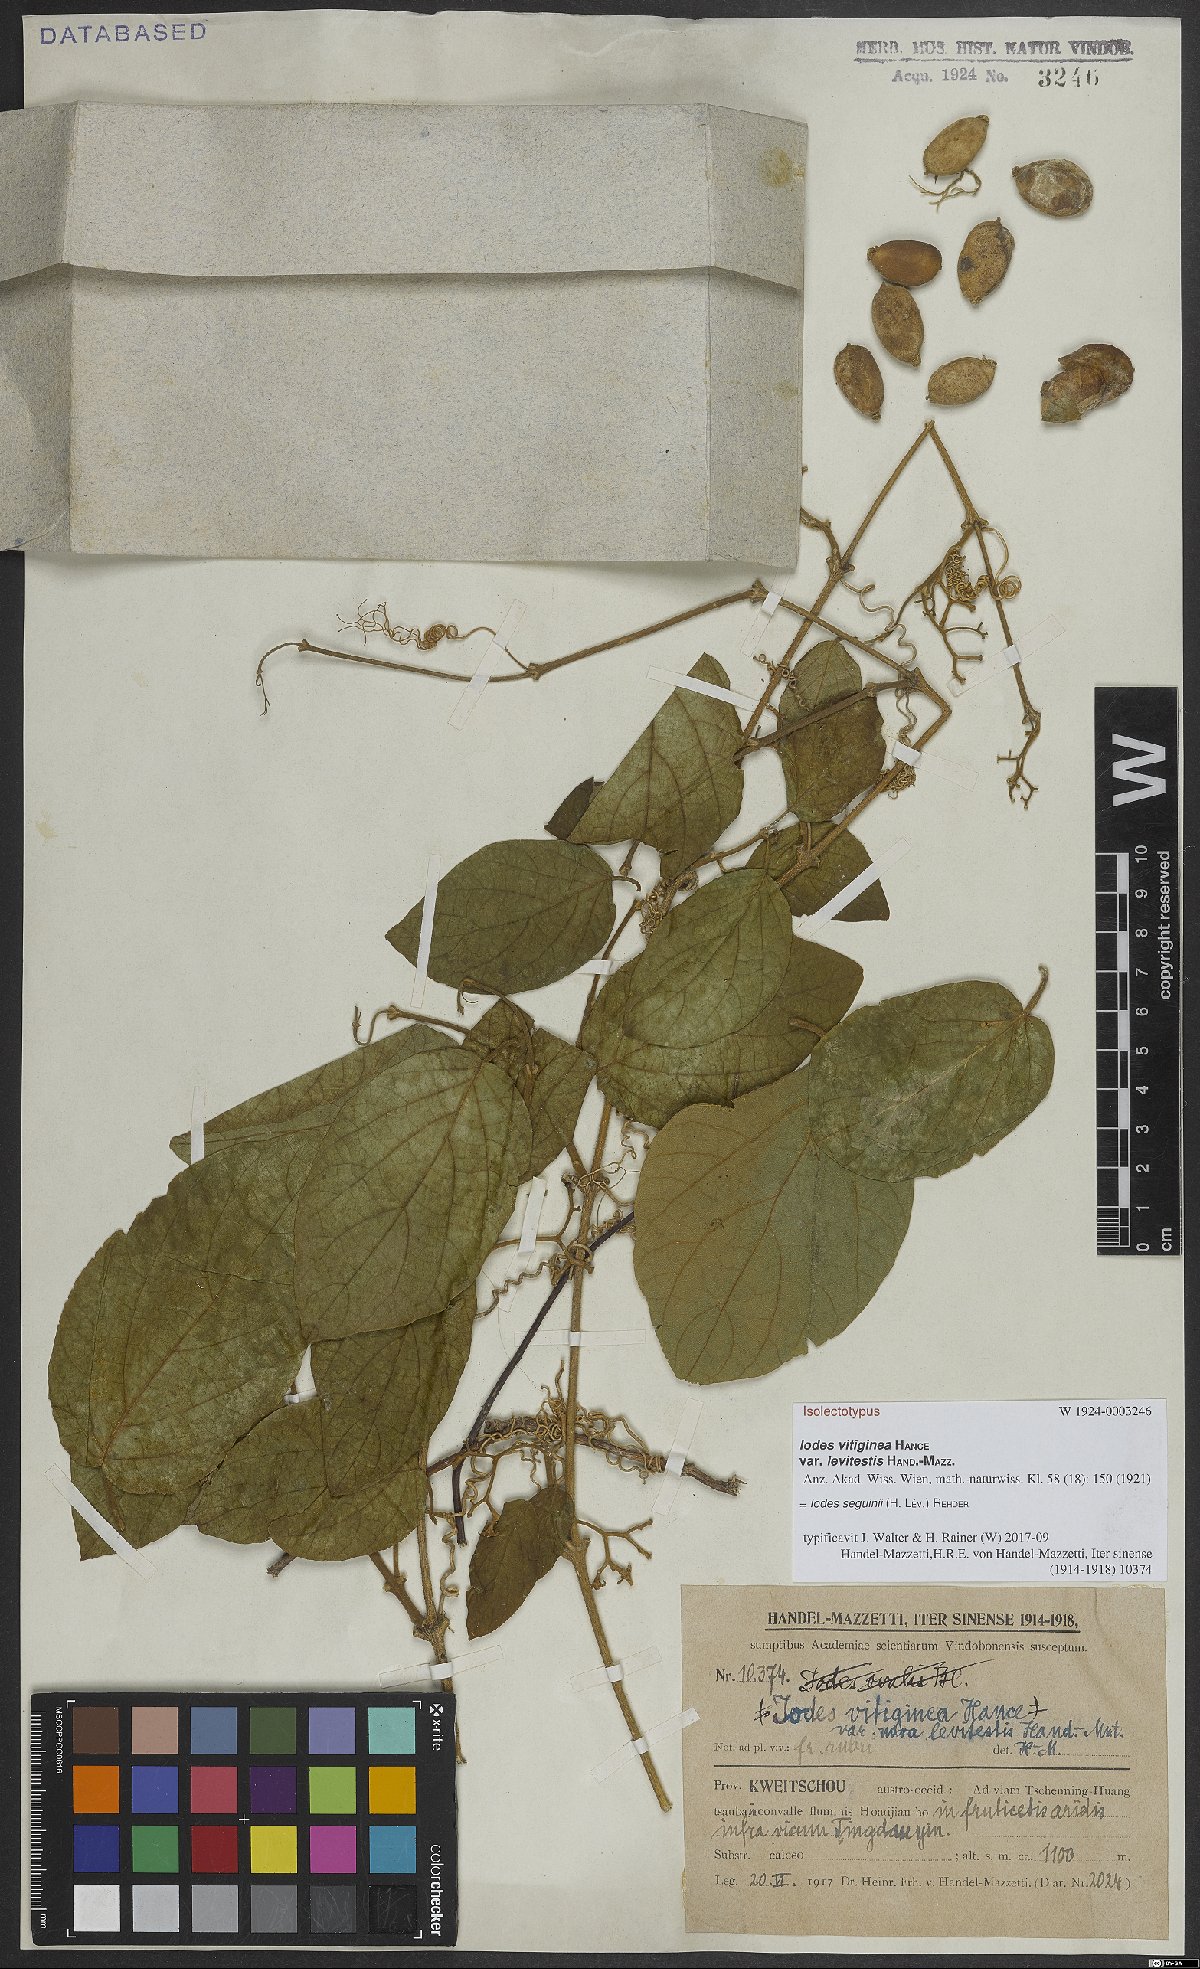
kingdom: Plantae
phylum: Tracheophyta
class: Magnoliopsida
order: Icacinales
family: Icacinaceae
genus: Iodes
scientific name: Iodes seguinii
